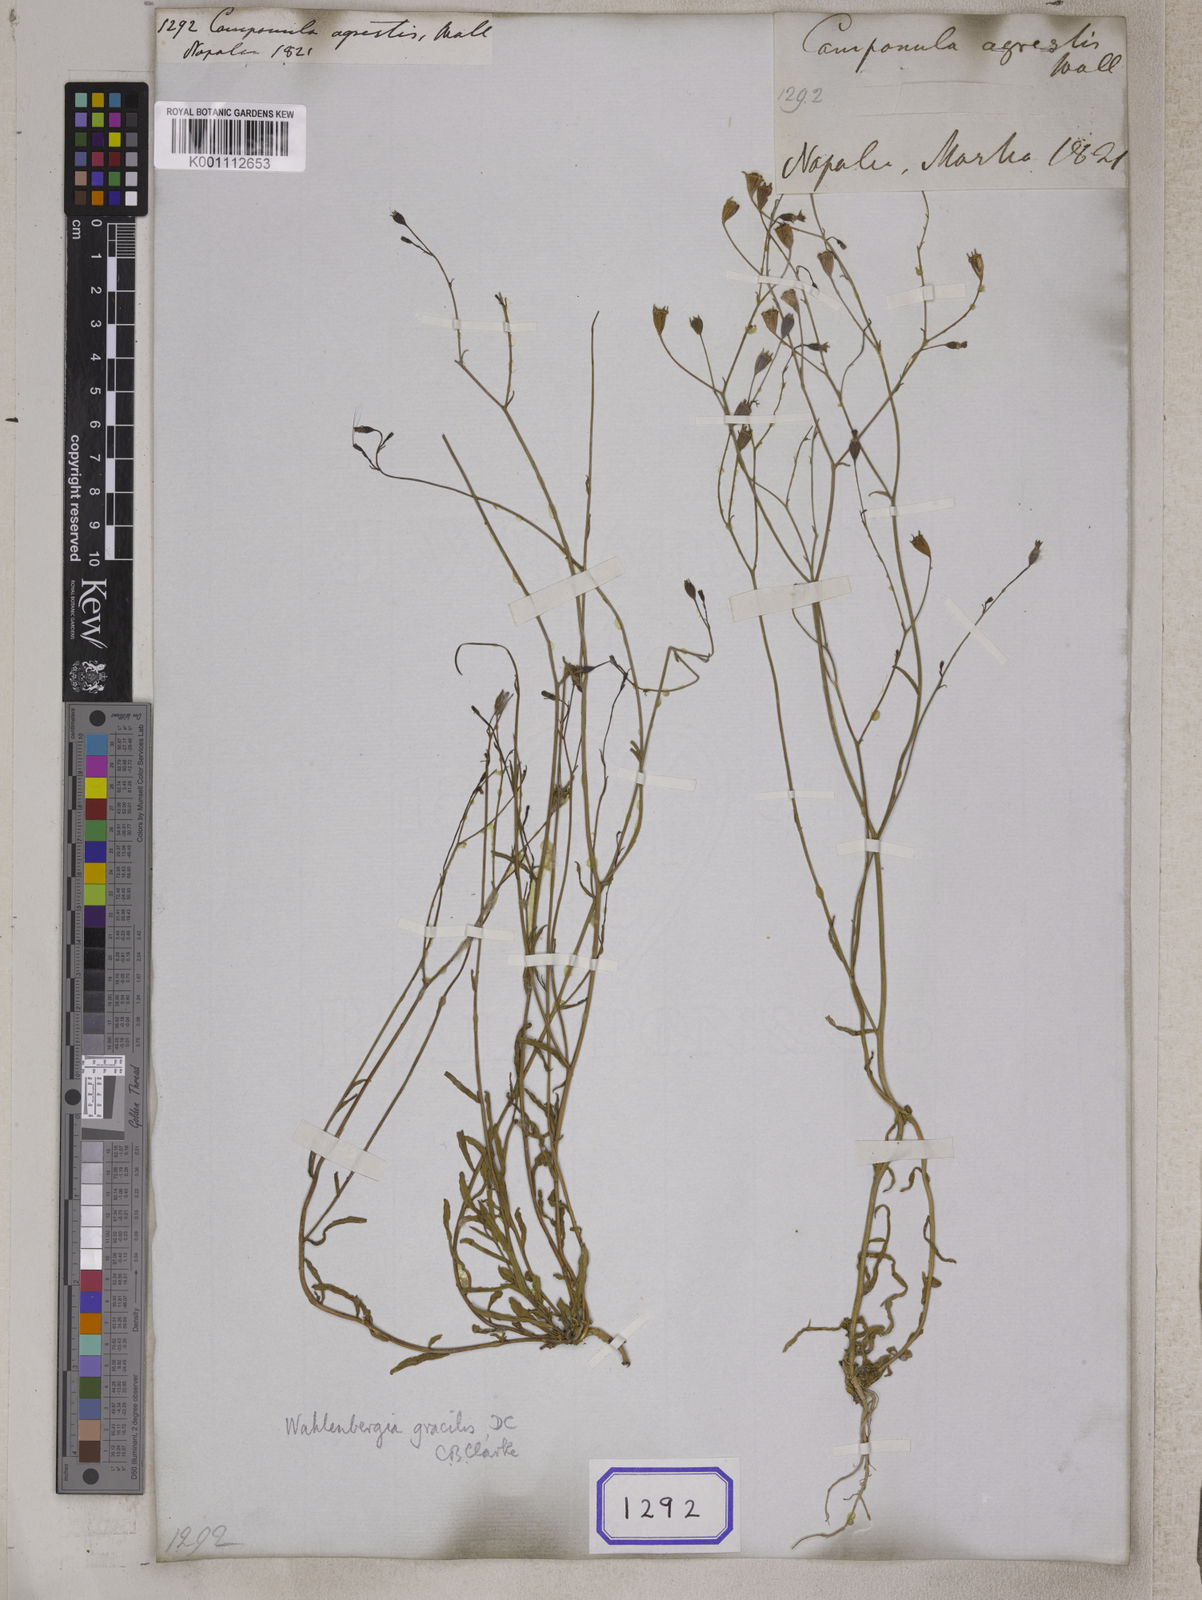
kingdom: Plantae
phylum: Tracheophyta
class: Magnoliopsida
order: Asterales
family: Campanulaceae
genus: Campanula
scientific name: Campanula
